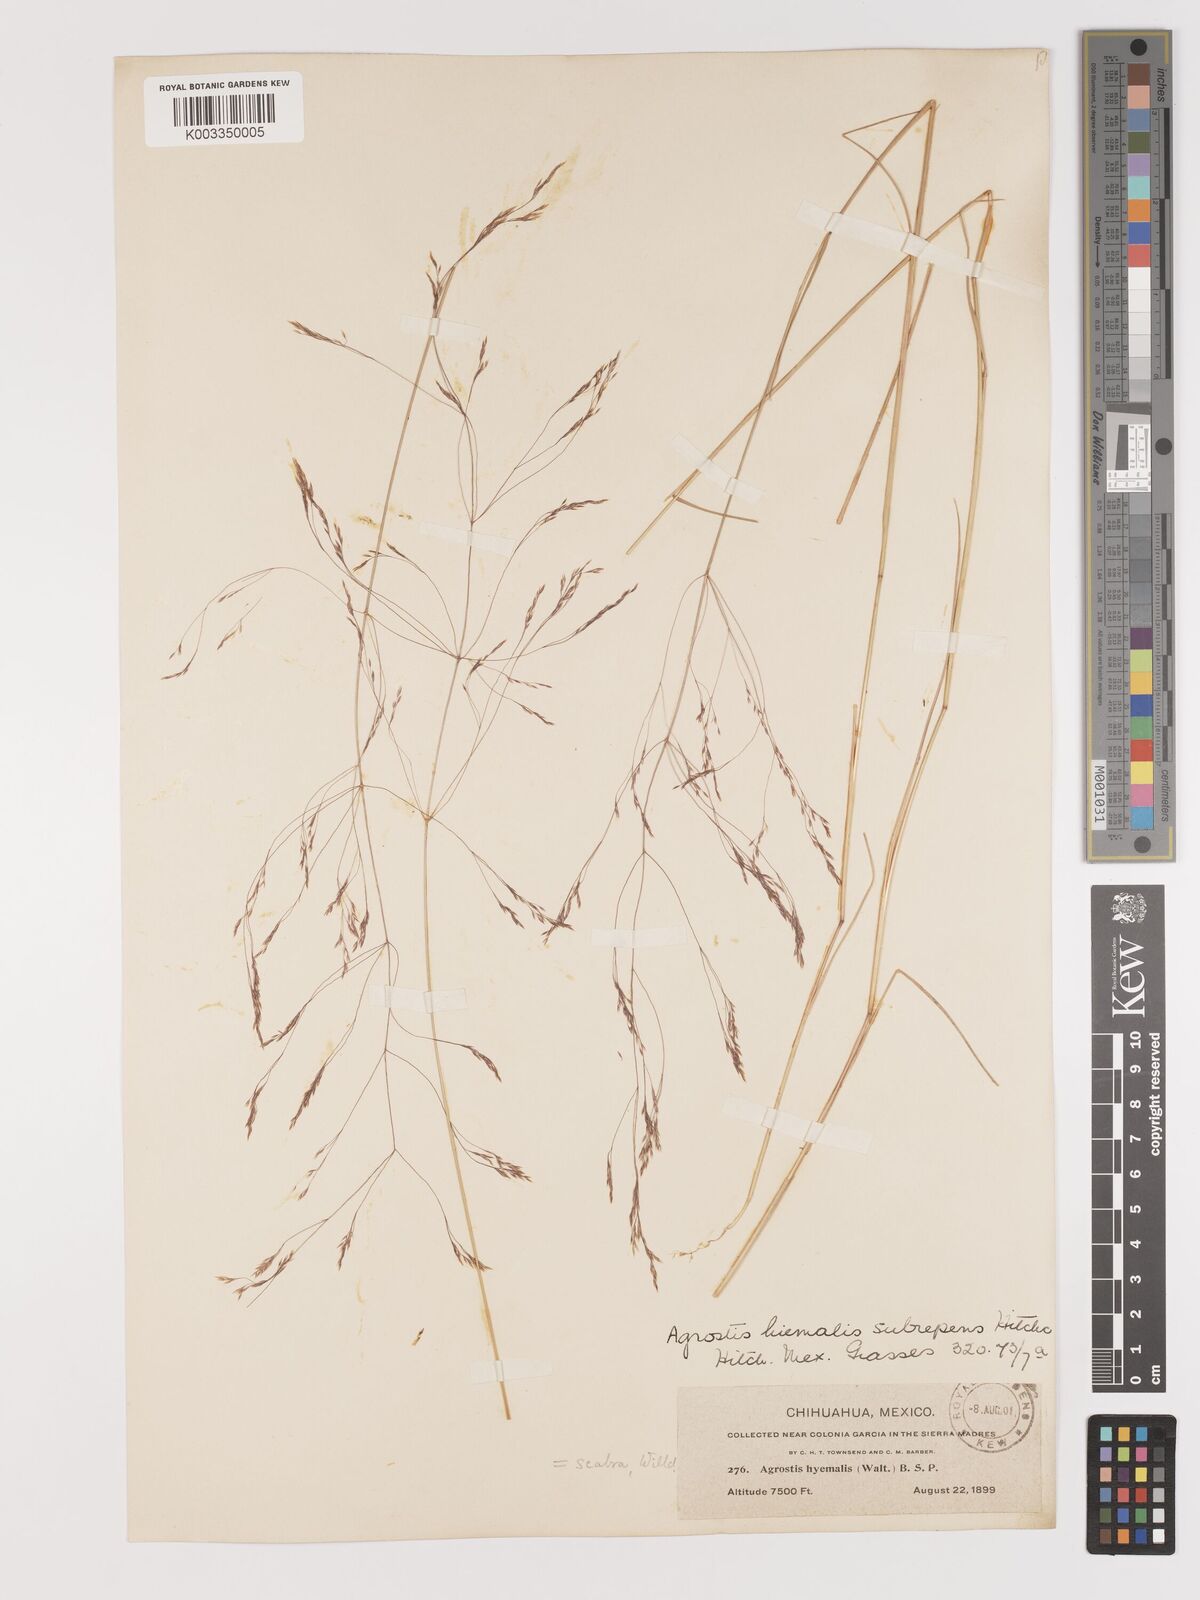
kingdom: Plantae
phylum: Tracheophyta
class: Liliopsida
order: Poales
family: Poaceae
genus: Agrostis
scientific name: Agrostis hyemalis
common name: Small bent
